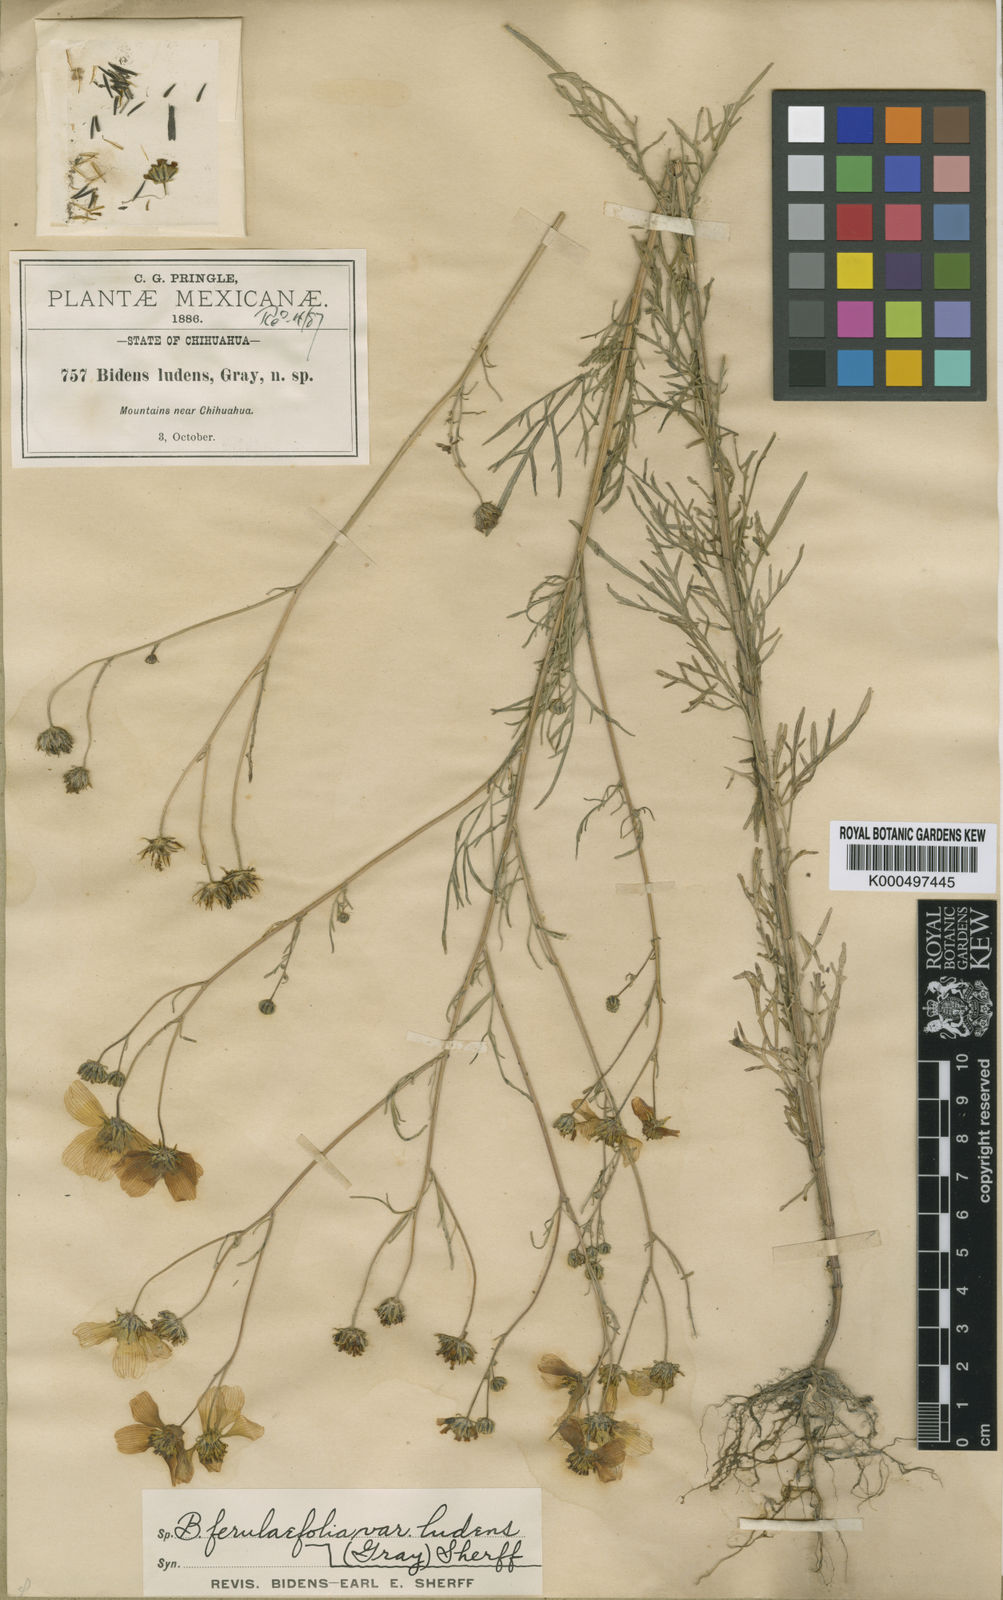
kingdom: Plantae
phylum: Tracheophyta
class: Magnoliopsida
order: Asterales
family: Asteraceae
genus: Bidens
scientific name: Bidens aurea
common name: Arizona beggar-ticks
